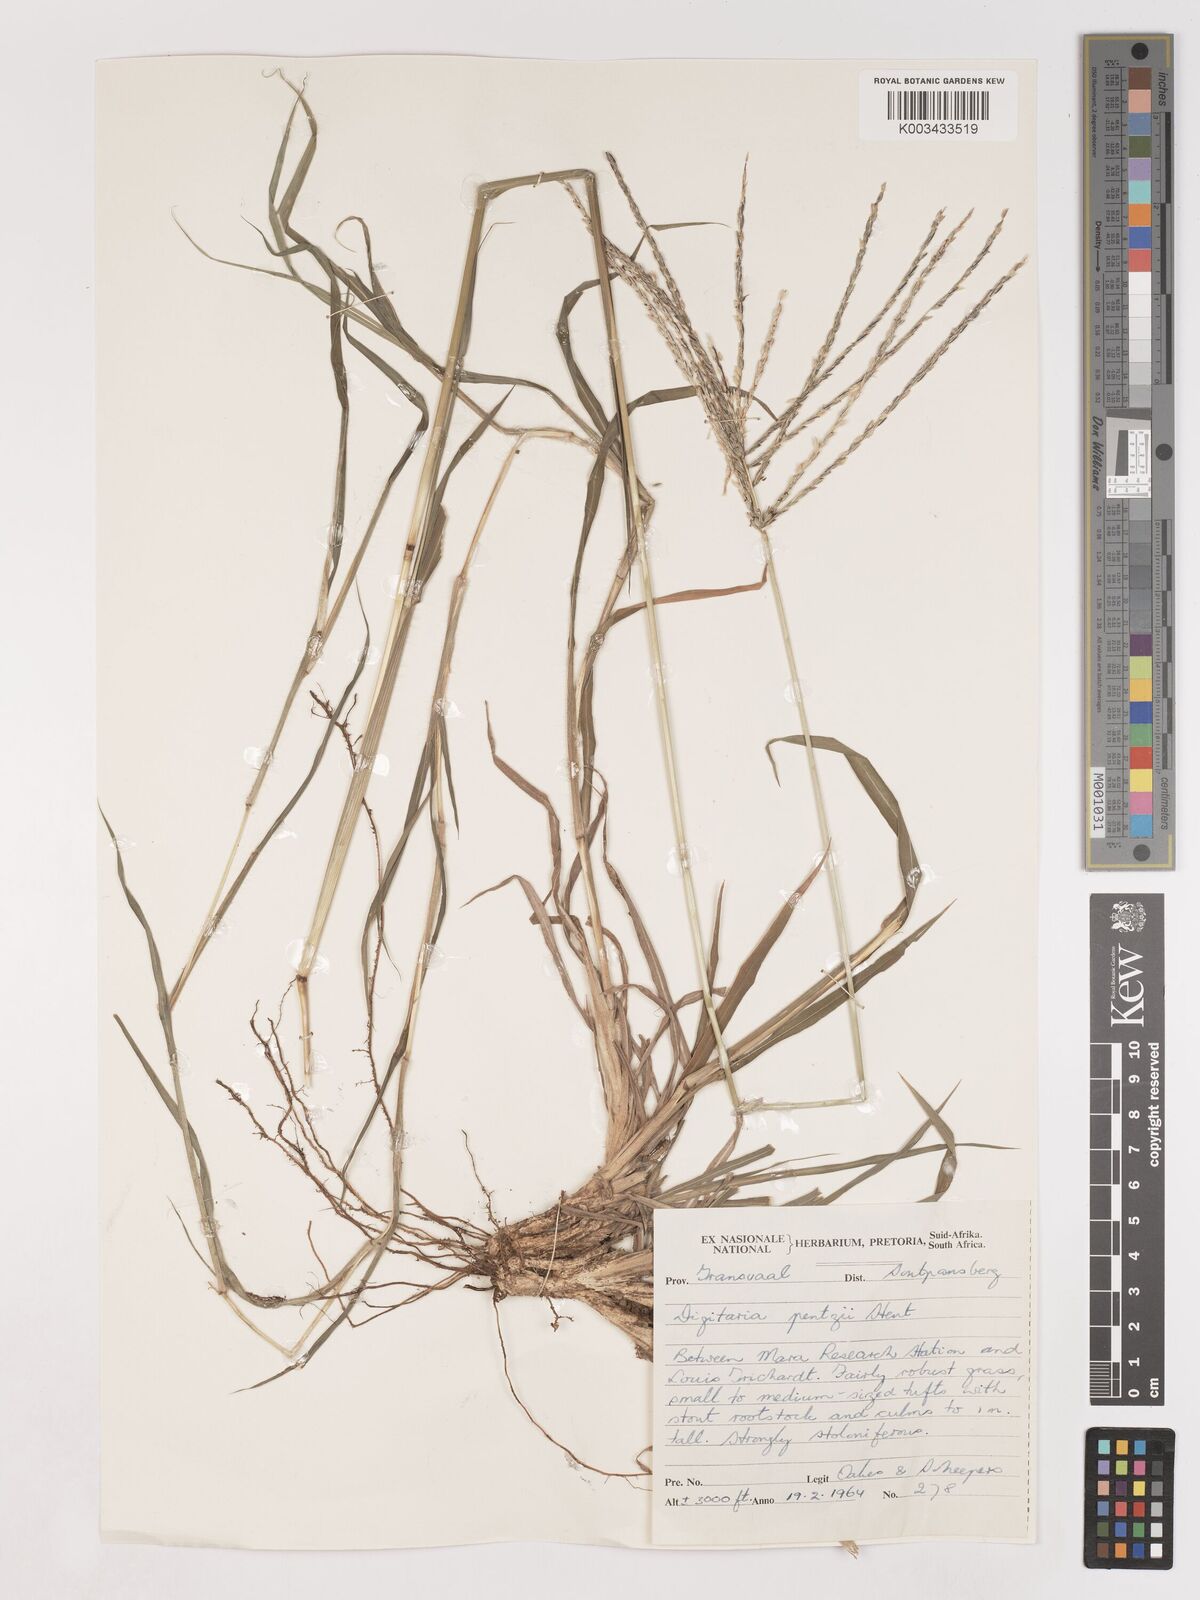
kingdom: Plantae
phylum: Tracheophyta
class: Liliopsida
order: Poales
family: Poaceae
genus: Digitaria
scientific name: Digitaria eriantha
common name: Digitgrass
